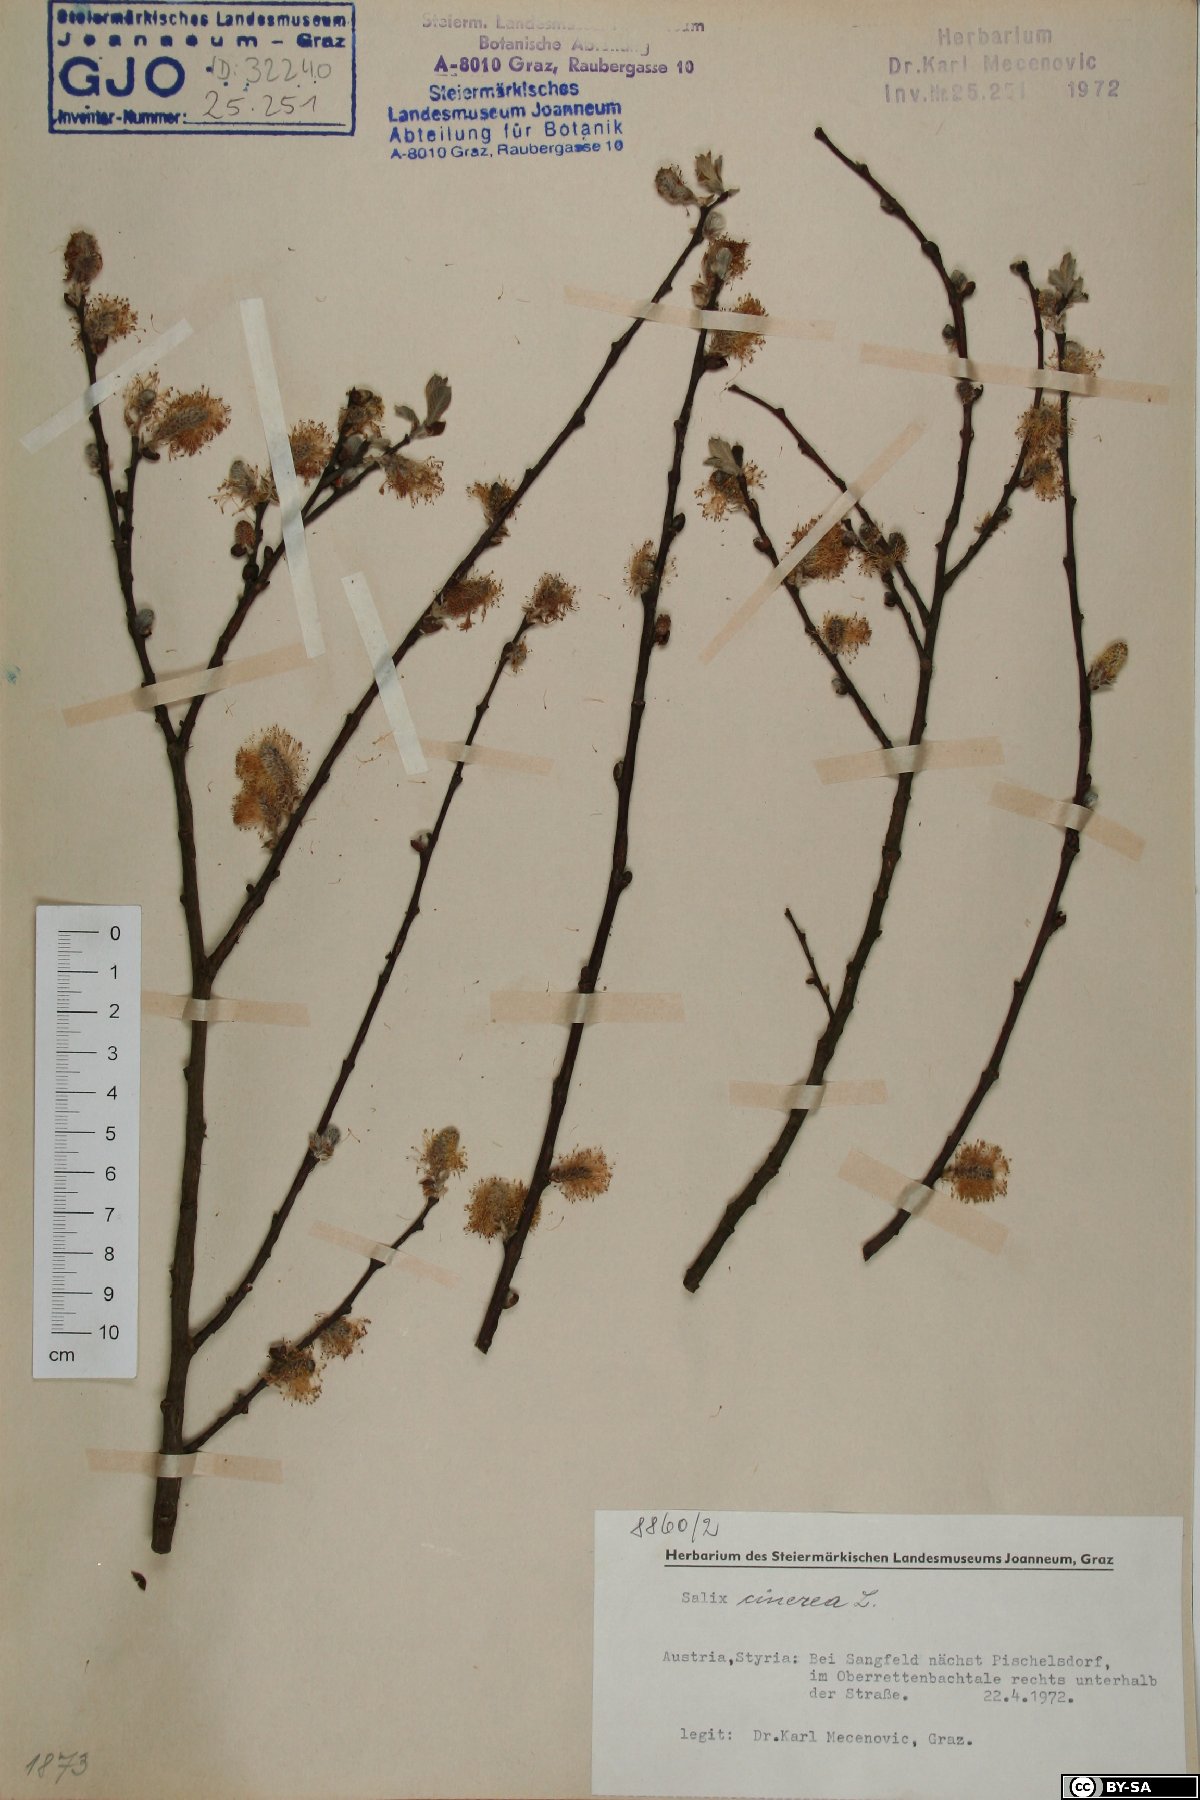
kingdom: Plantae
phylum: Tracheophyta
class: Magnoliopsida
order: Malpighiales
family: Salicaceae
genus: Salix
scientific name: Salix cinerea
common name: Common sallow
